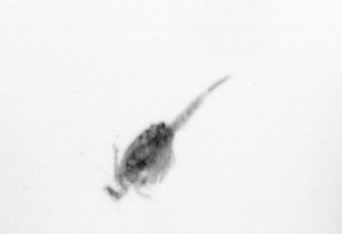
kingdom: Animalia
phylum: Arthropoda
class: Copepoda
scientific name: Copepoda
